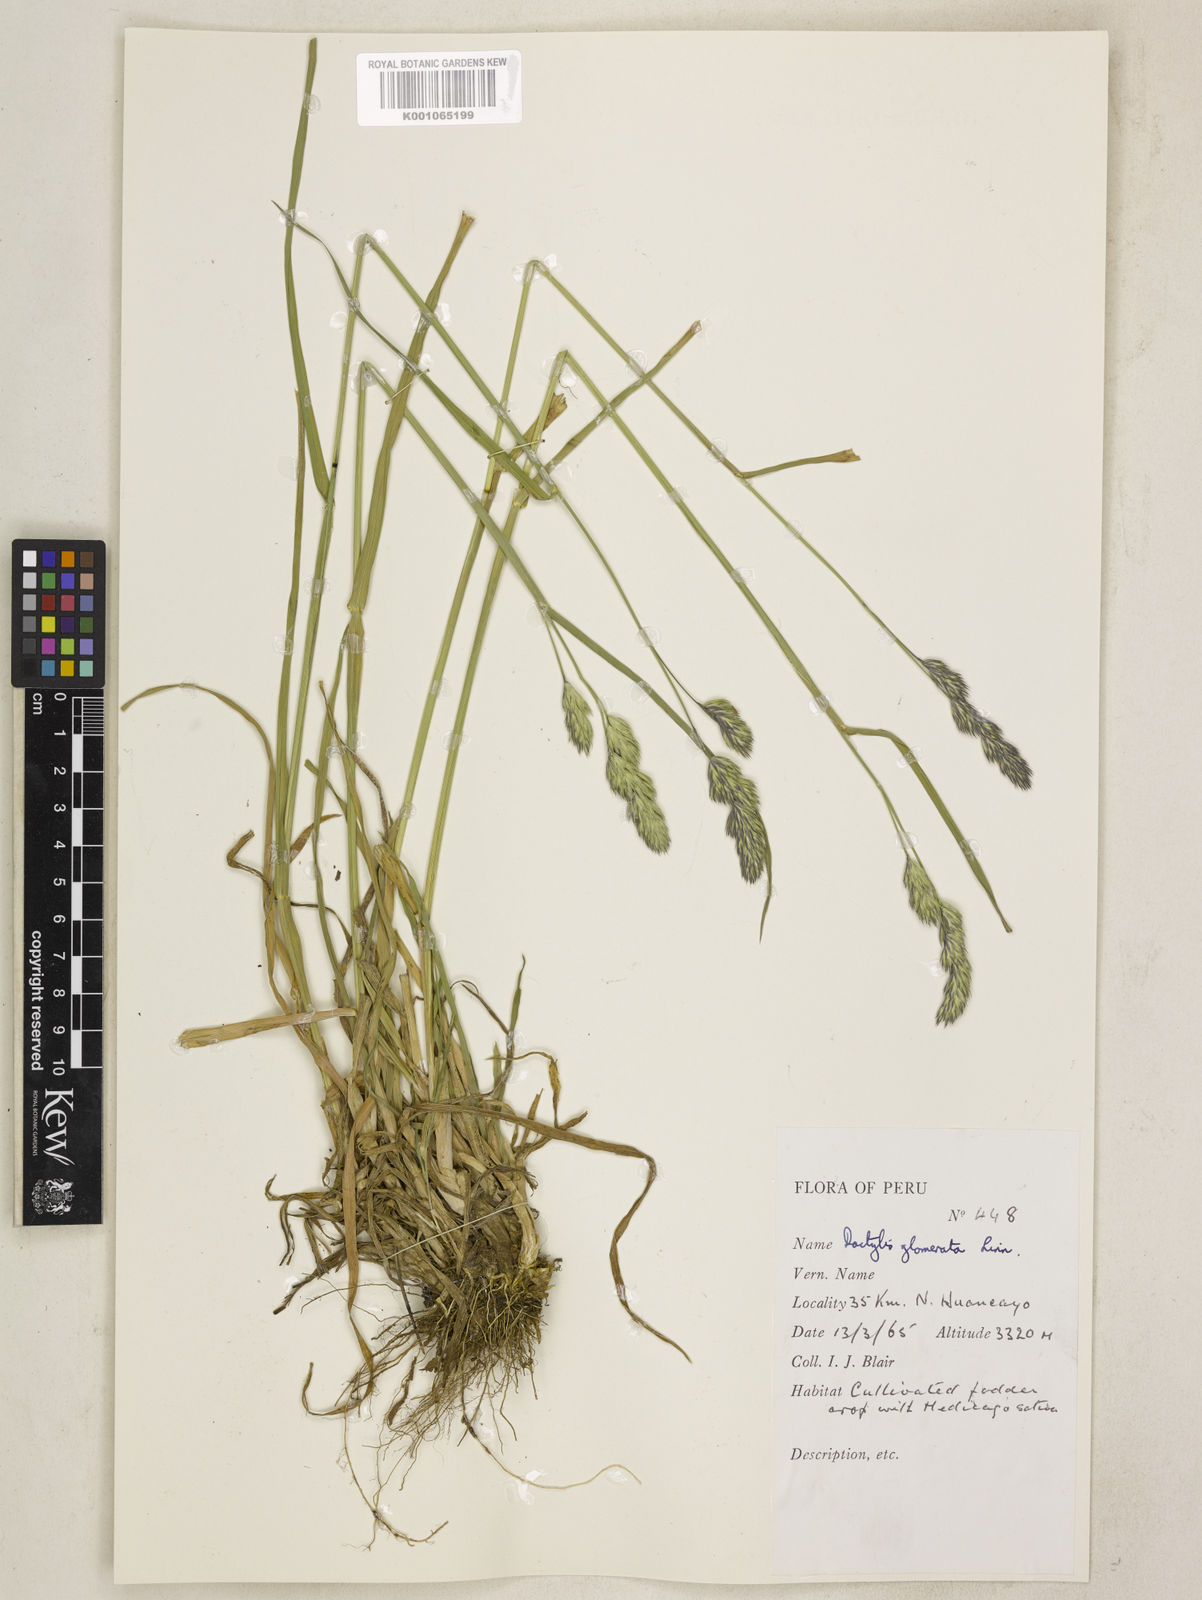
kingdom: Plantae
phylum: Tracheophyta
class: Liliopsida
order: Poales
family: Poaceae
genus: Dactylis
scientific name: Dactylis glomerata
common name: Orchardgrass
